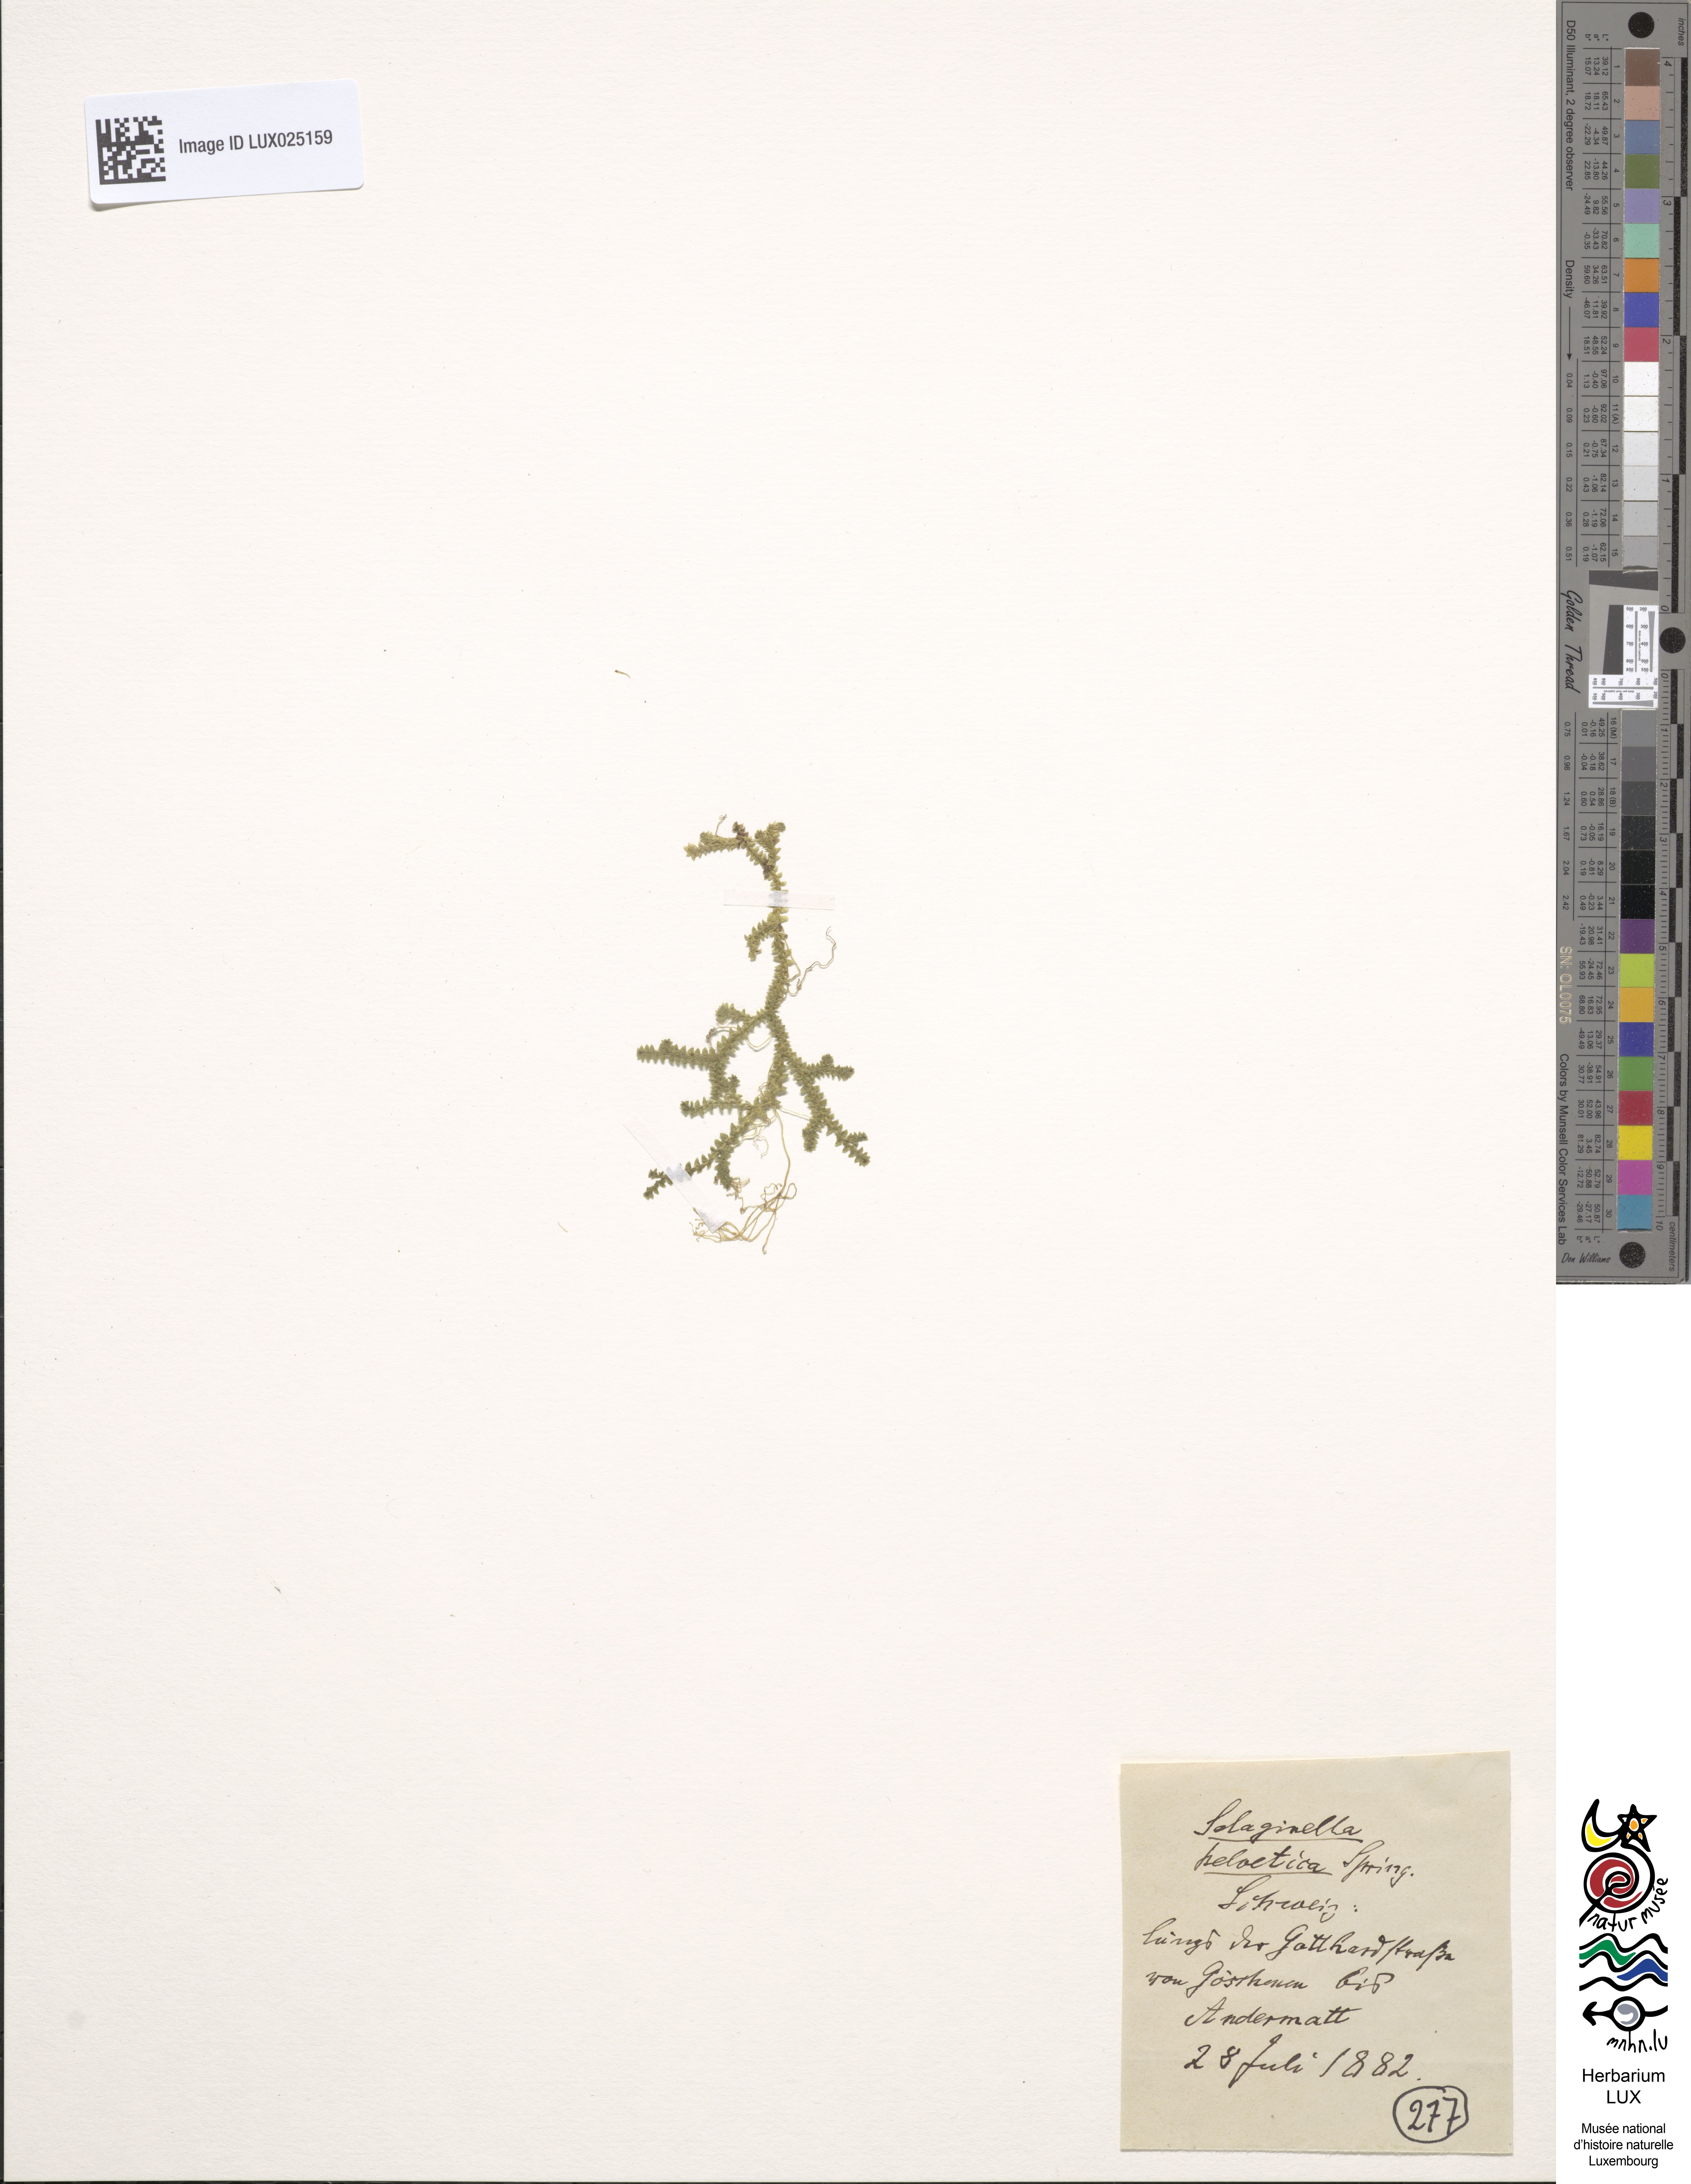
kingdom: Plantae
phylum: Tracheophyta
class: Lycopodiopsida
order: Selaginellales
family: Selaginellaceae
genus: Selaginella
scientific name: Selaginella helvetica
